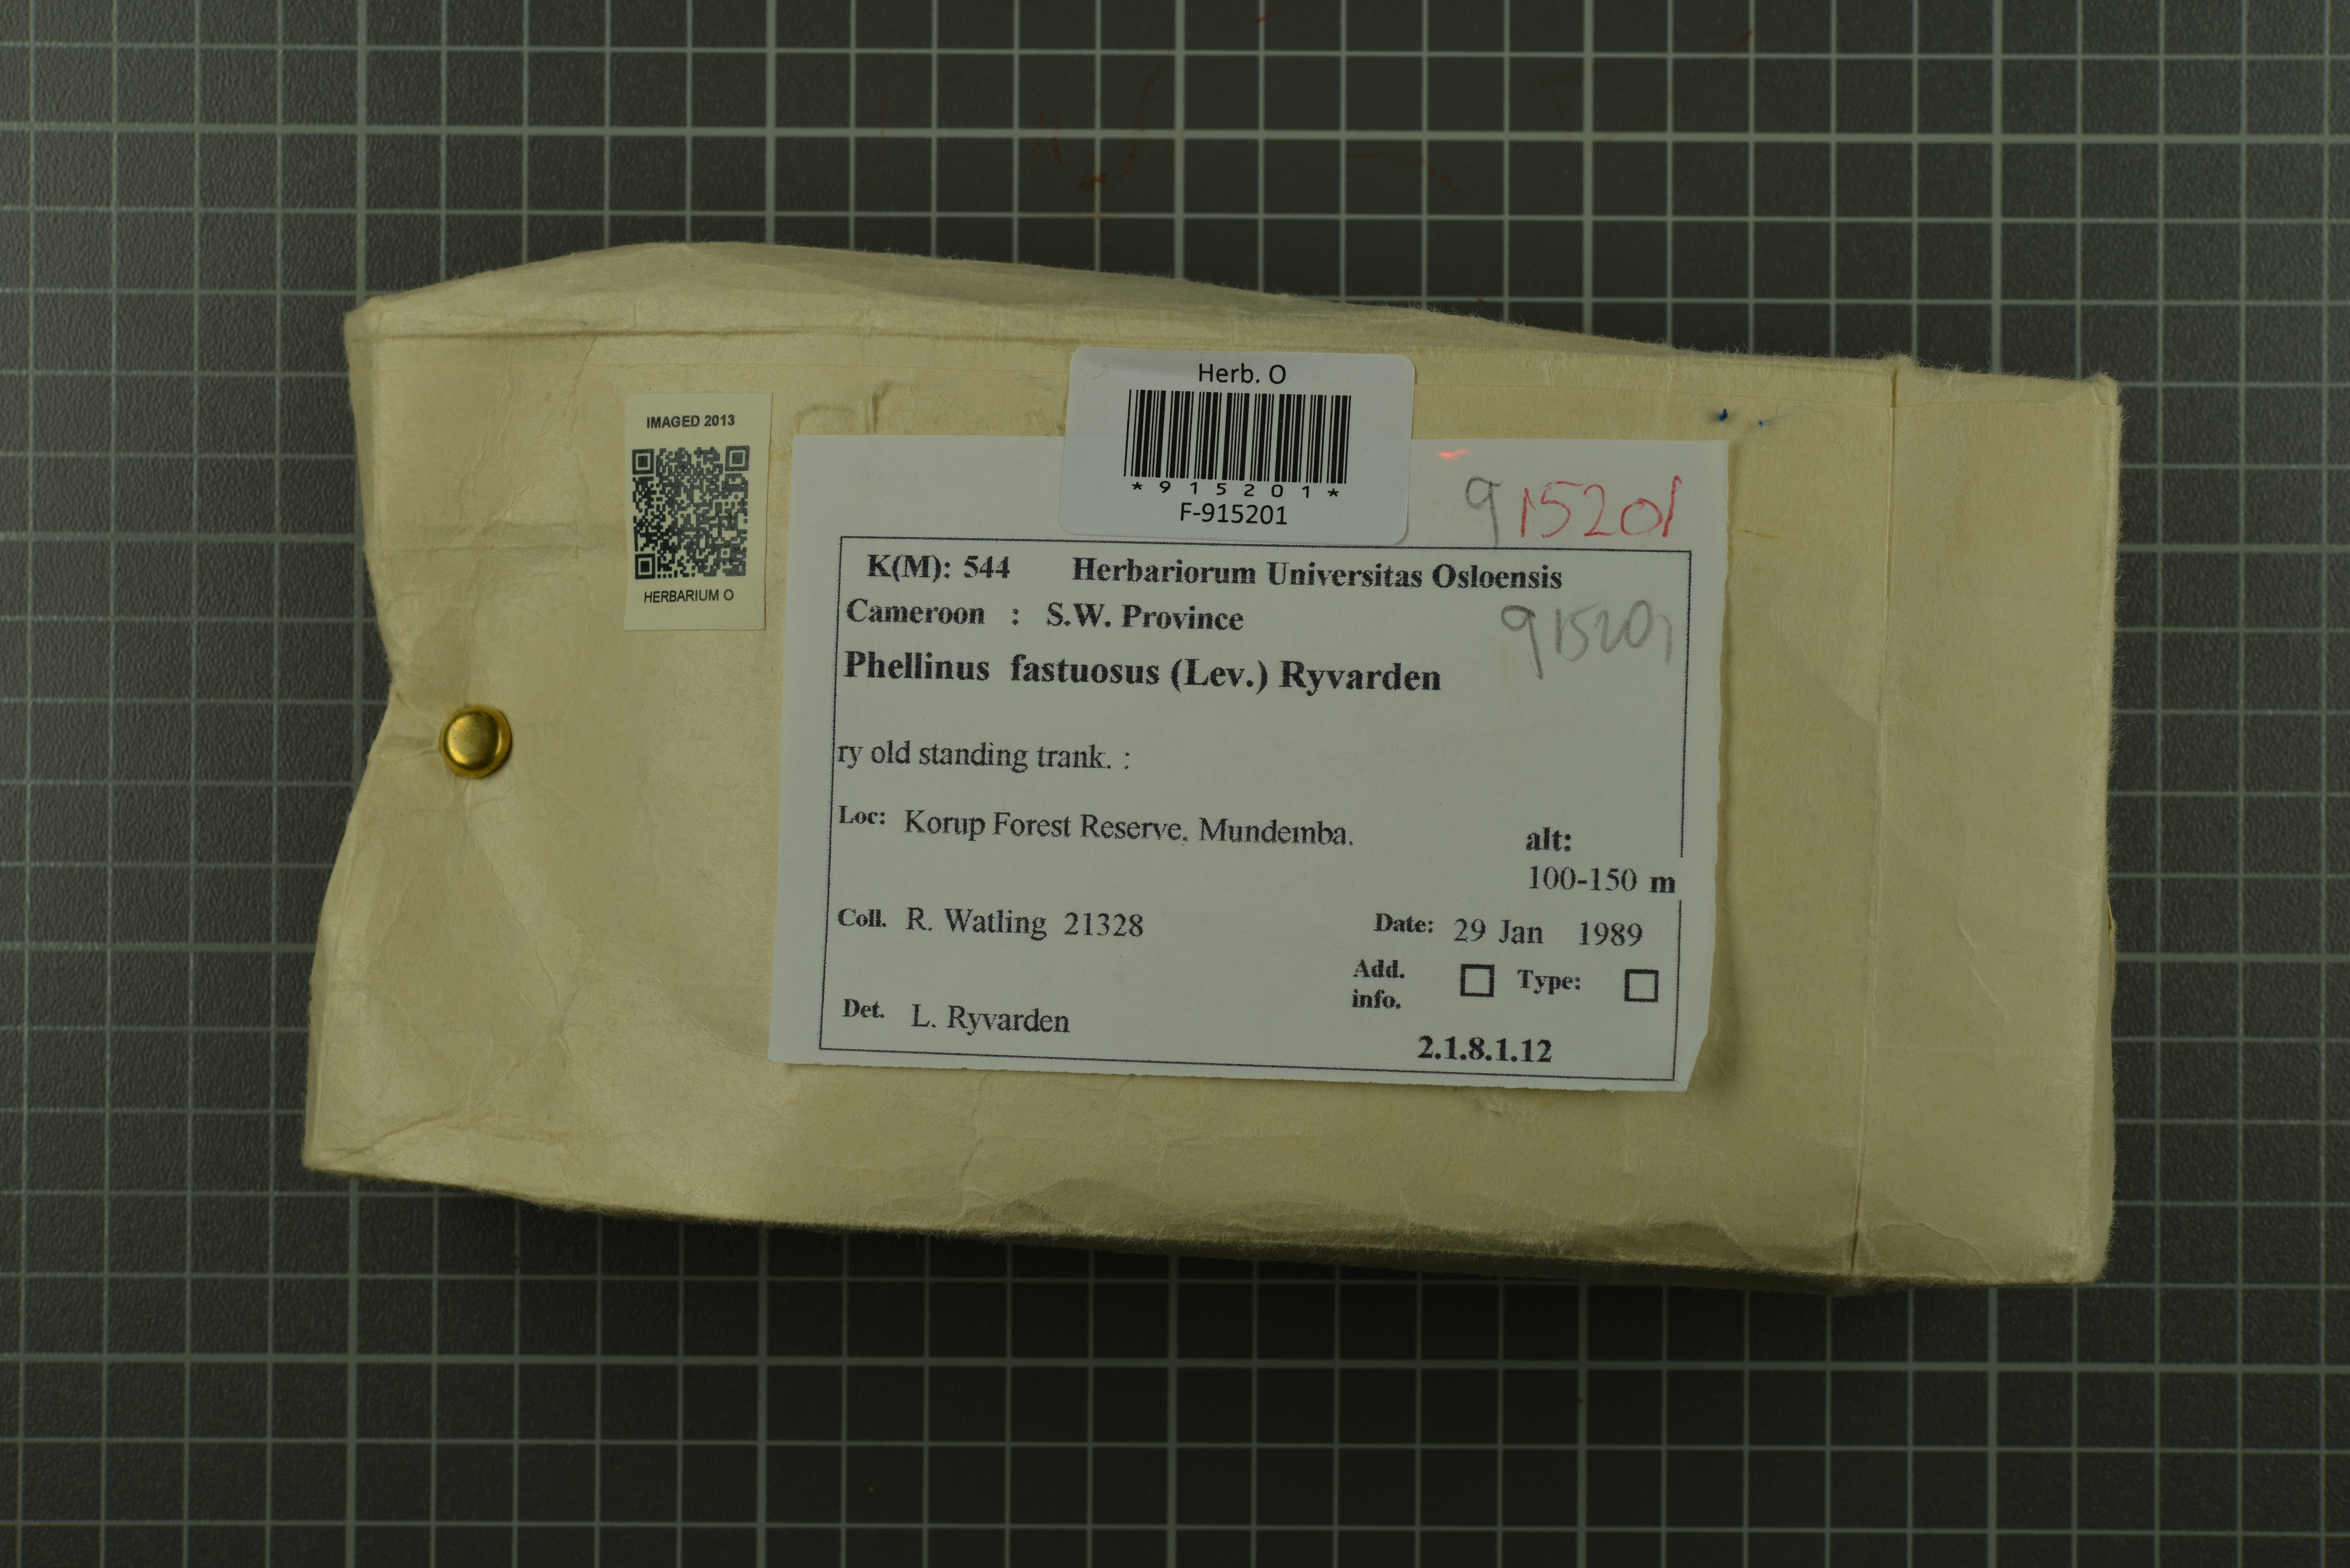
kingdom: Fungi
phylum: Basidiomycota
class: Agaricomycetes
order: Hymenochaetales
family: Hymenochaetaceae
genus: Phellinus
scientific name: Phellinus fastuosus
